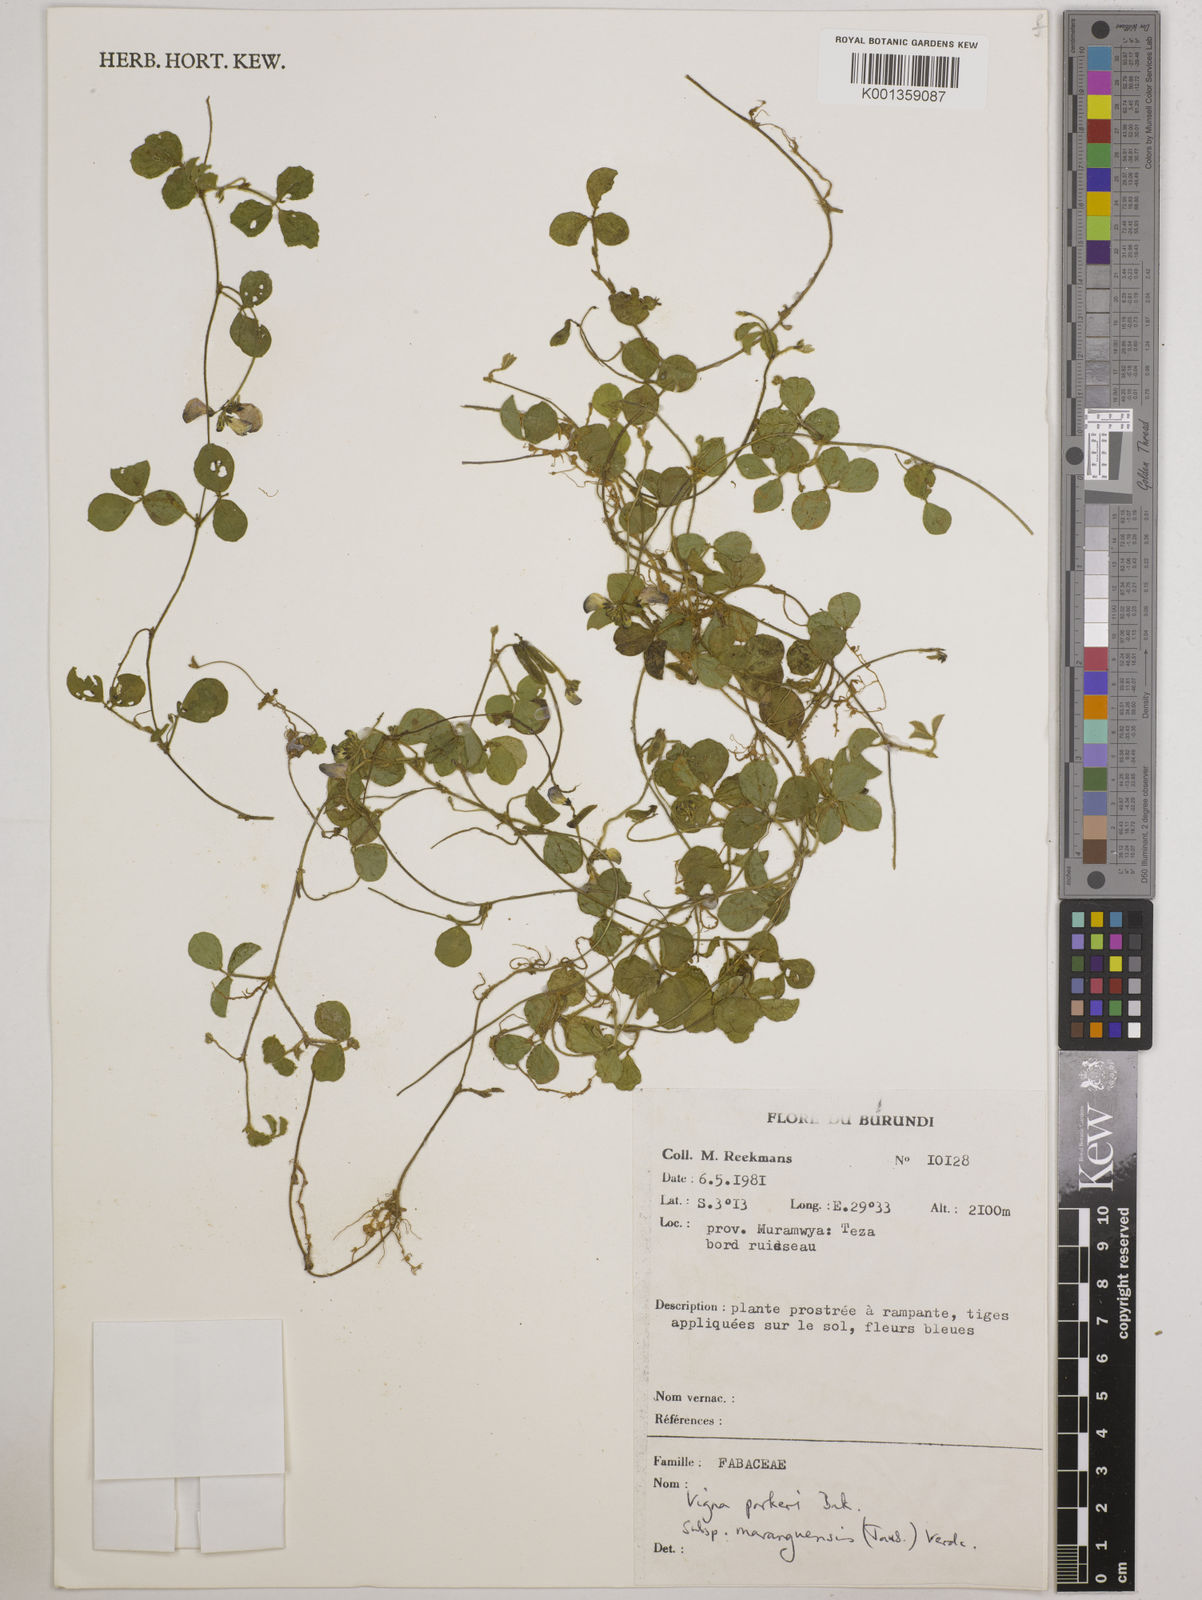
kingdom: Plantae
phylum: Tracheophyta
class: Magnoliopsida
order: Fabales
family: Fabaceae
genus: Vigna
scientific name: Vigna
